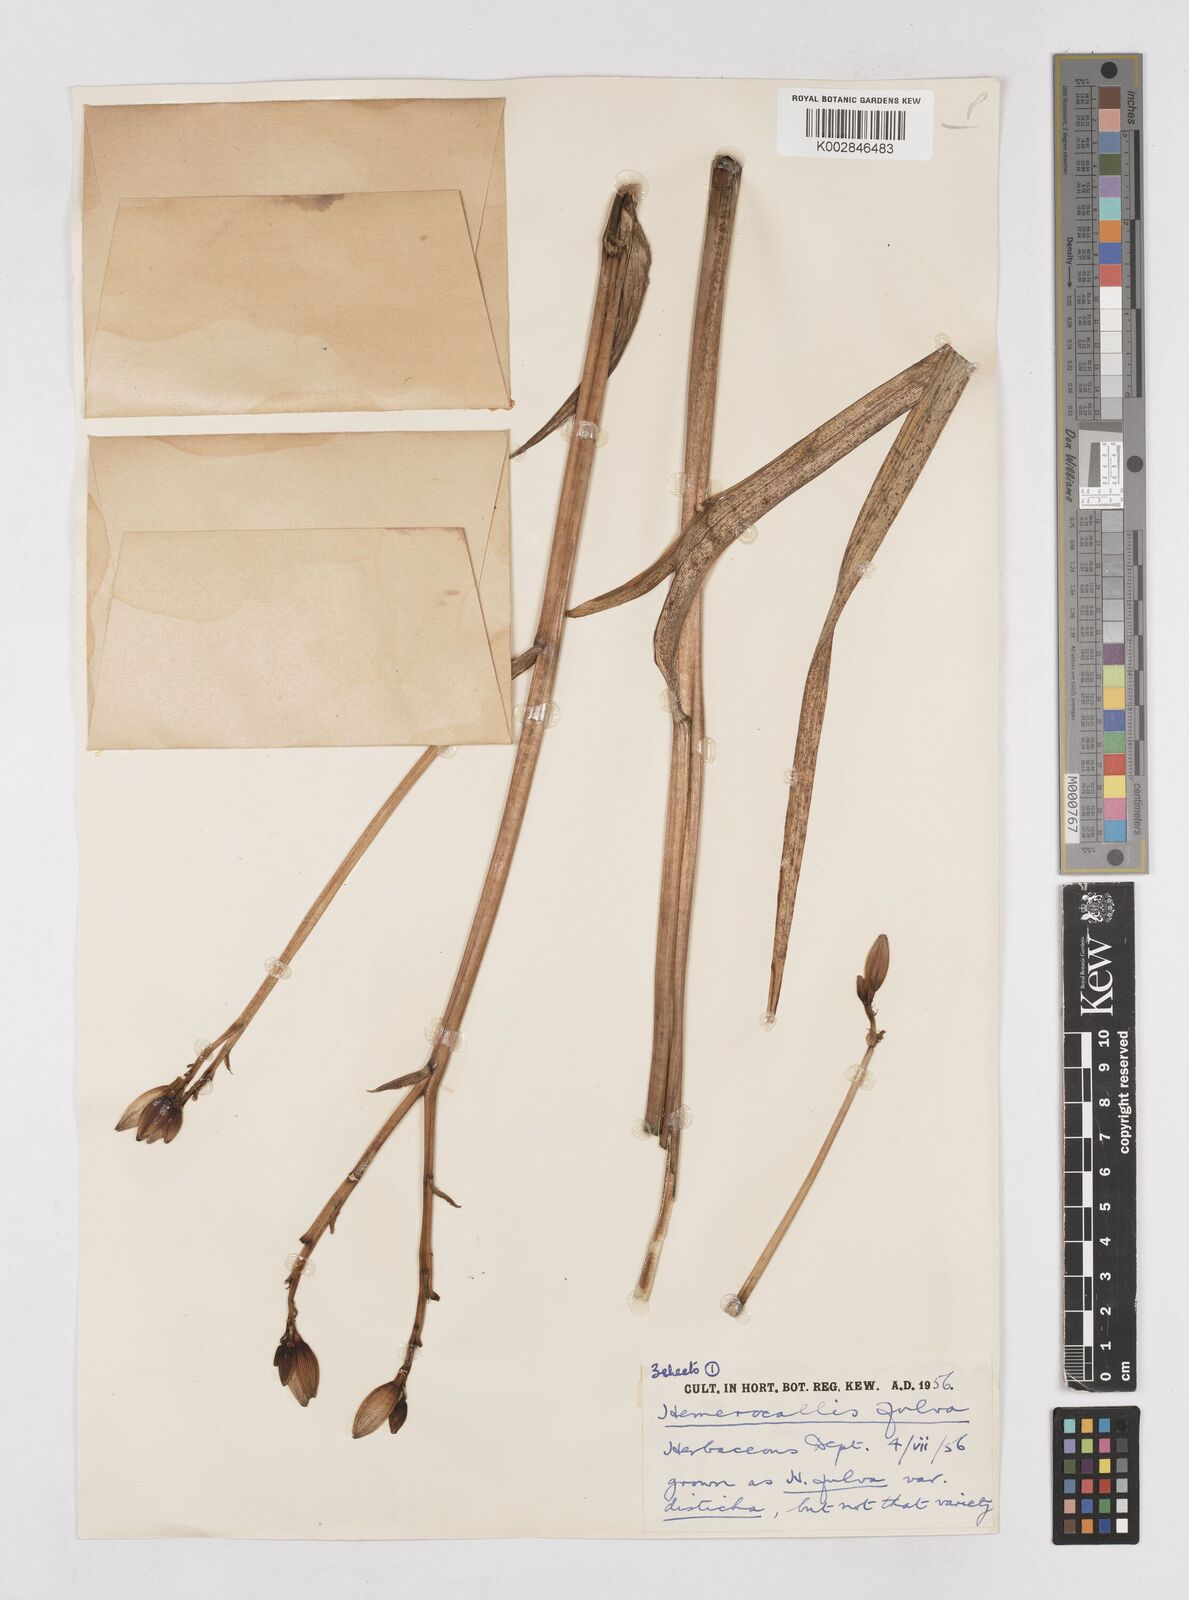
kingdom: Plantae
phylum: Tracheophyta
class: Liliopsida
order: Asparagales
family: Asphodelaceae
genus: Hemerocallis
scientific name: Hemerocallis lilioasphodelus
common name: Yellow day-lily
